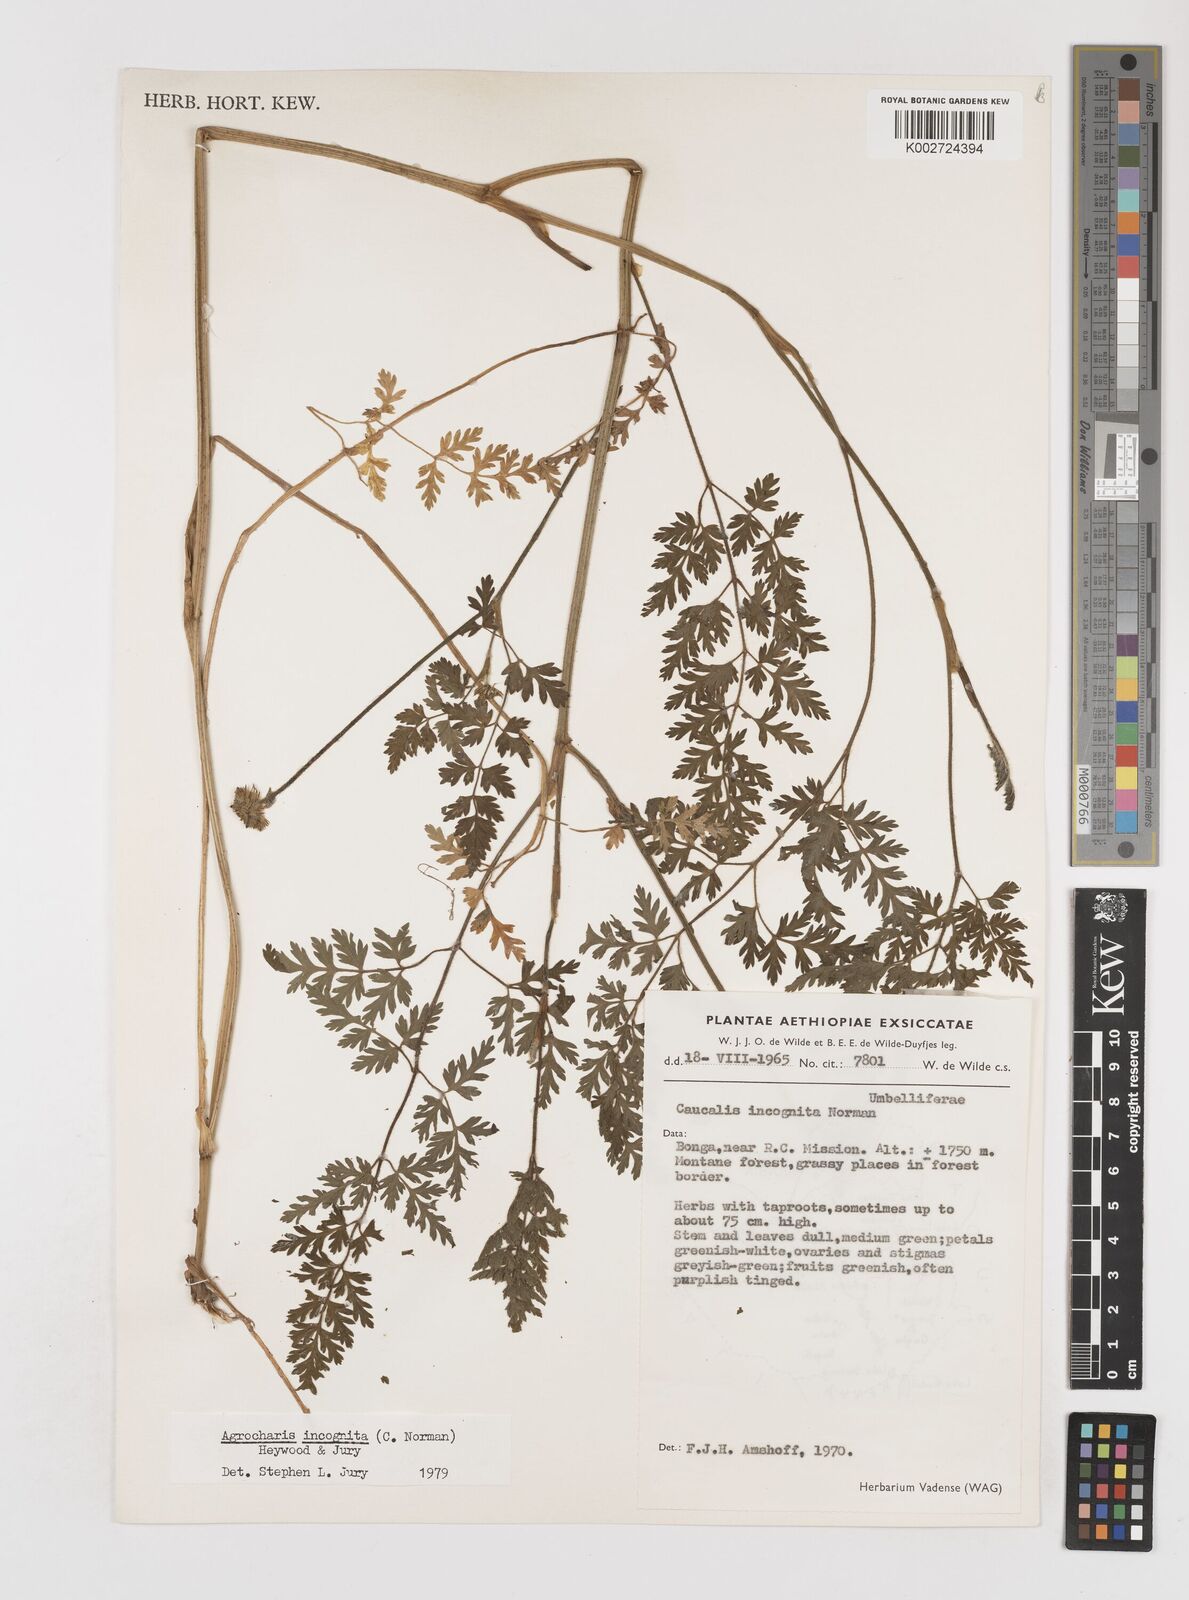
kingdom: Plantae
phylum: Tracheophyta
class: Magnoliopsida
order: Apiales
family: Apiaceae
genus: Daucus
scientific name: Daucus incognitus
